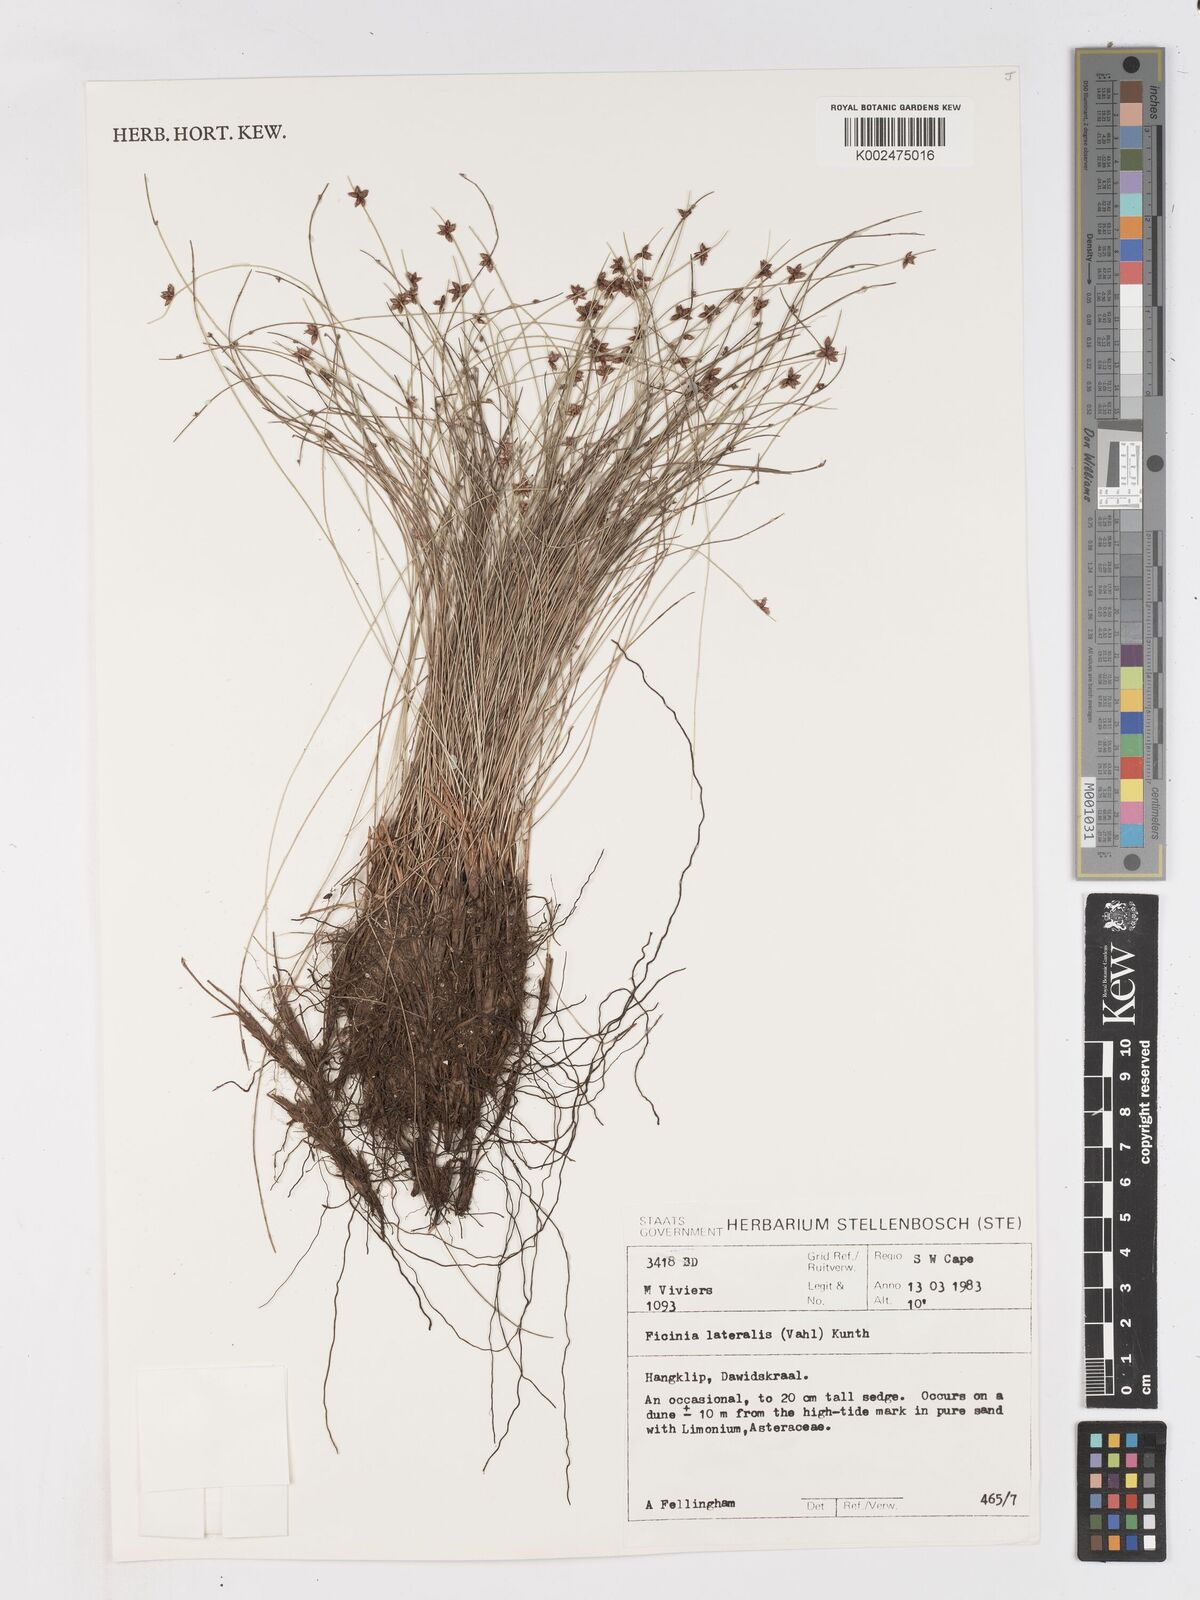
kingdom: Plantae
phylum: Tracheophyta
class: Liliopsida
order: Poales
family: Cyperaceae
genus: Ficinia
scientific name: Ficinia lateralis
